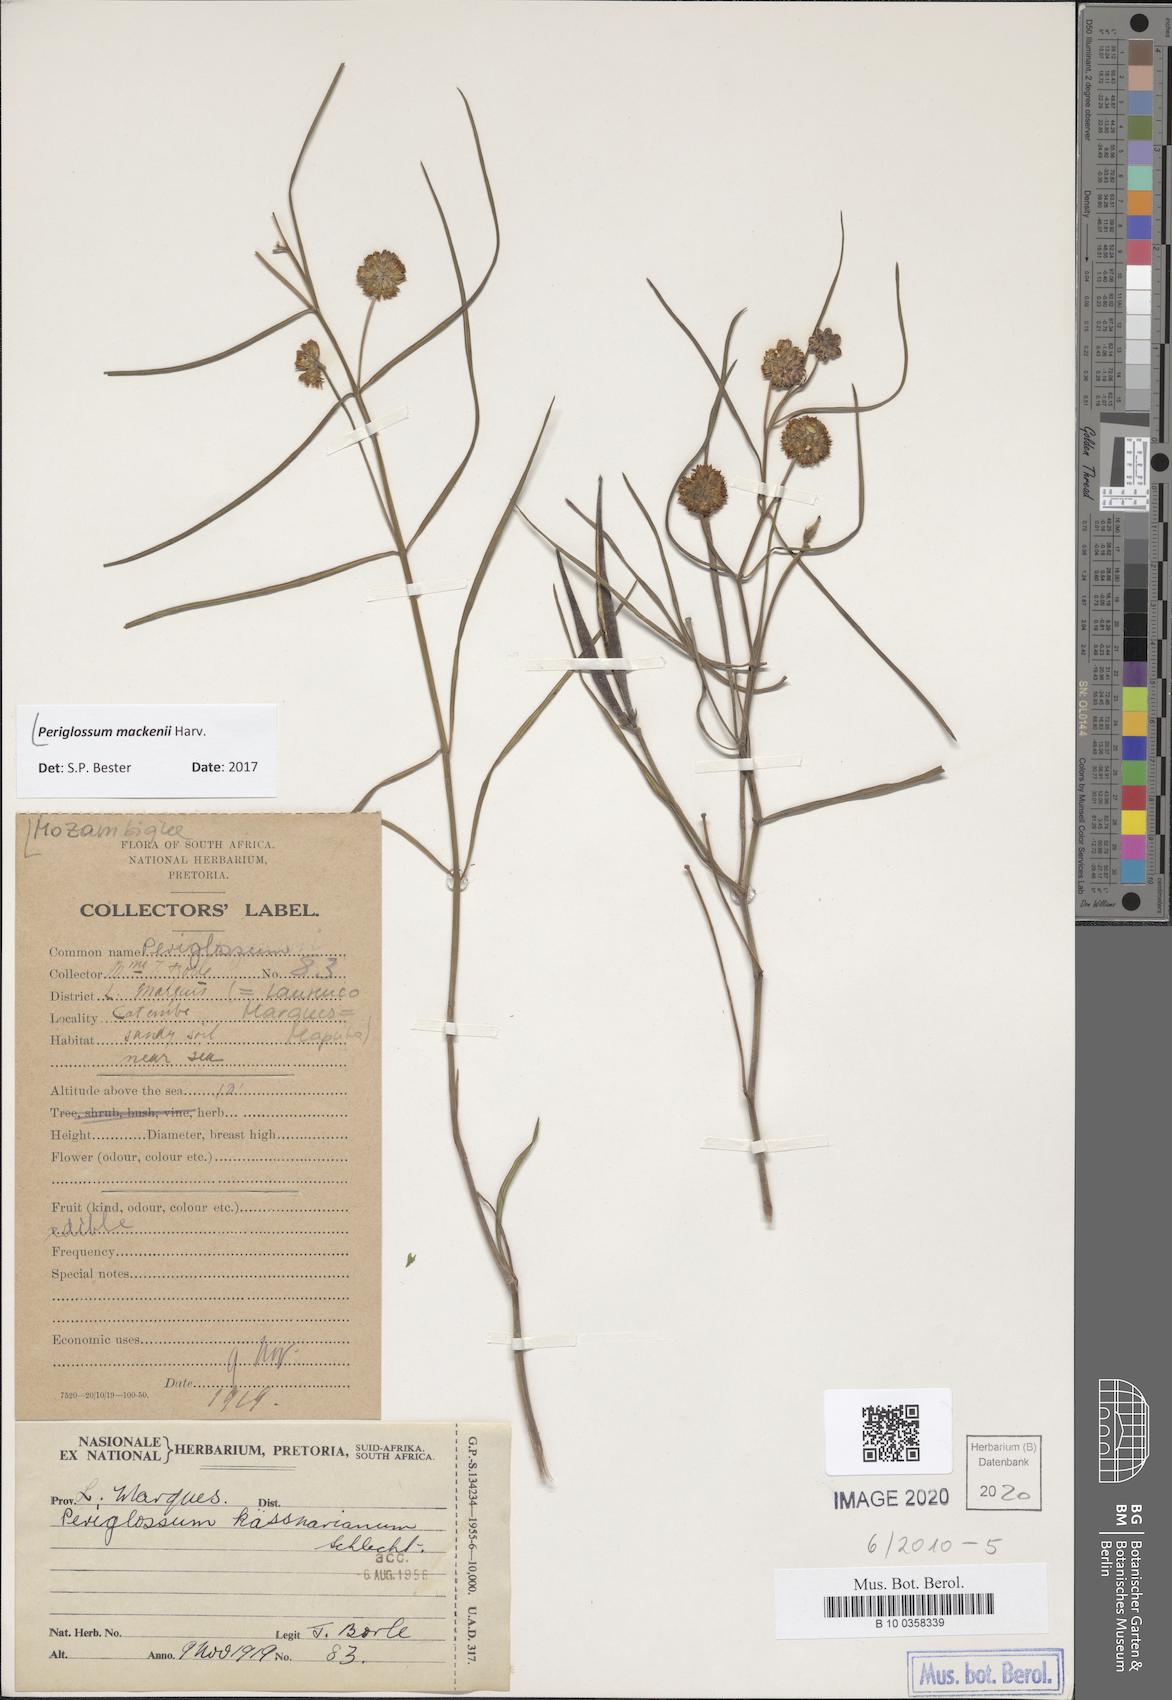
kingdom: Plantae
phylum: Tracheophyta
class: Magnoliopsida
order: Gentianales
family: Apocynaceae
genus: Sisyranthus
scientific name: Sisyranthus macer
